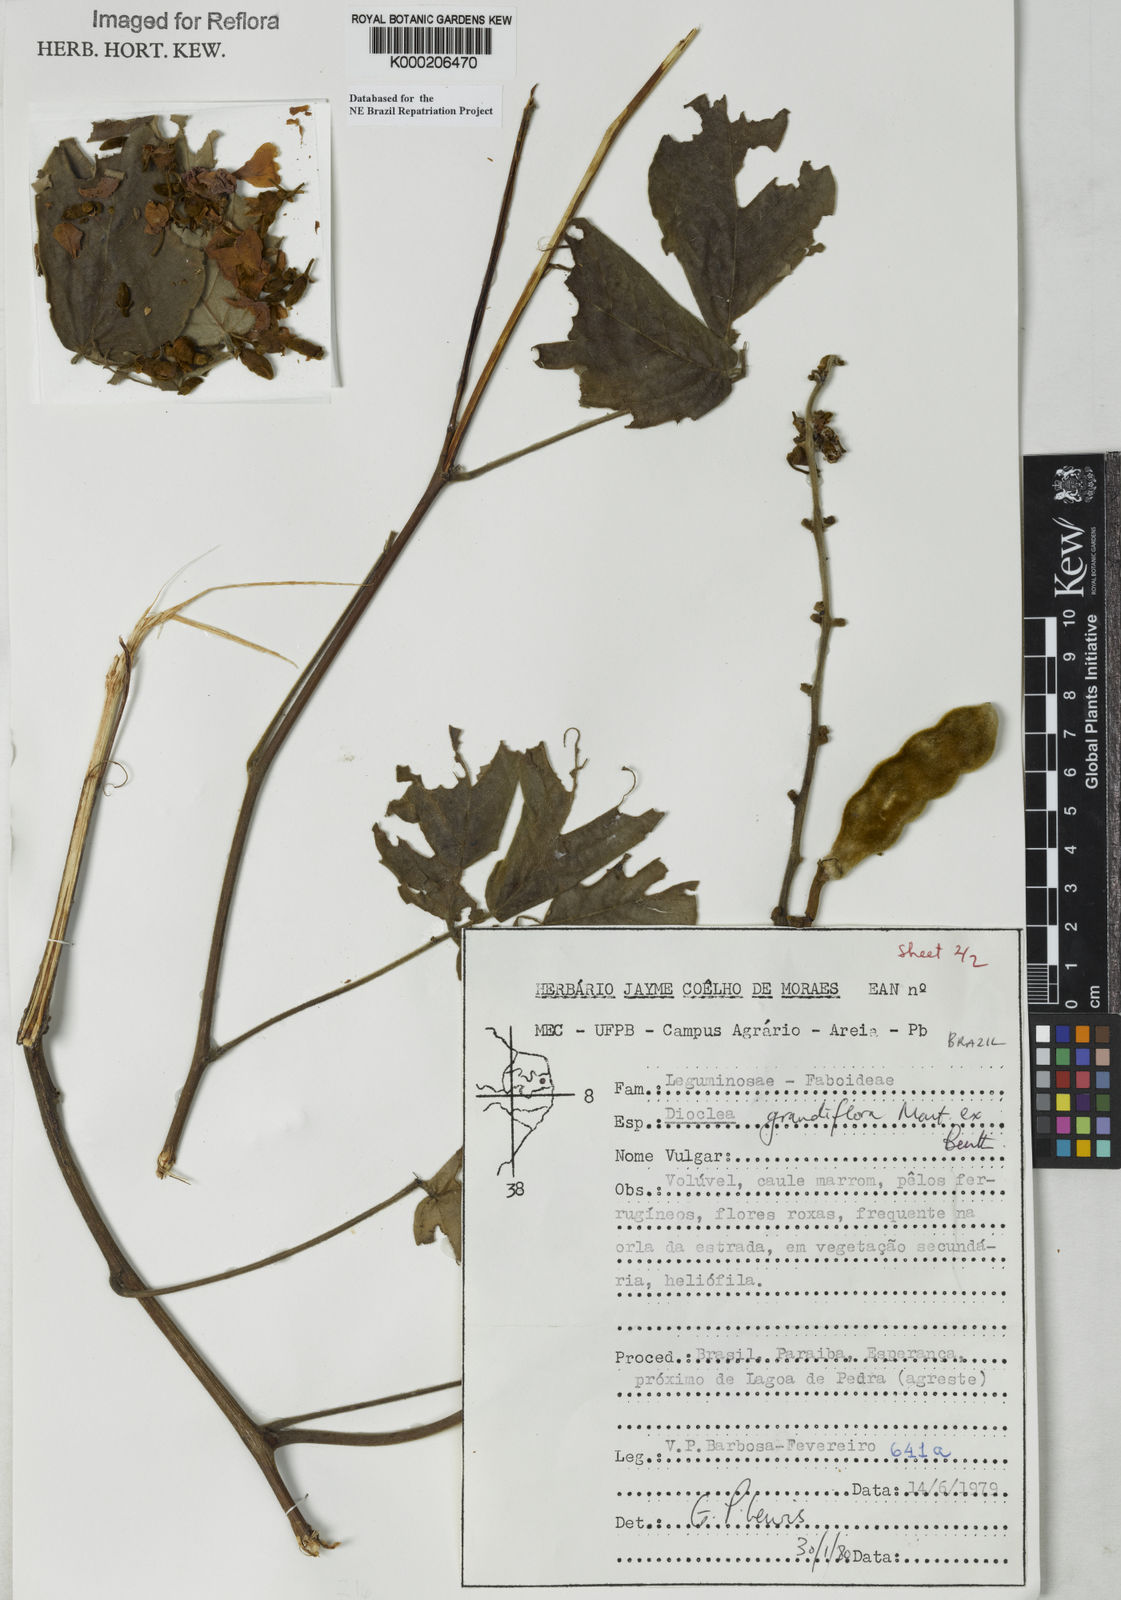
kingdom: Plantae
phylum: Tracheophyta
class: Magnoliopsida
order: Fabales
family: Fabaceae
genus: Macropsychanthus
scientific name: Macropsychanthus grandiflorus
